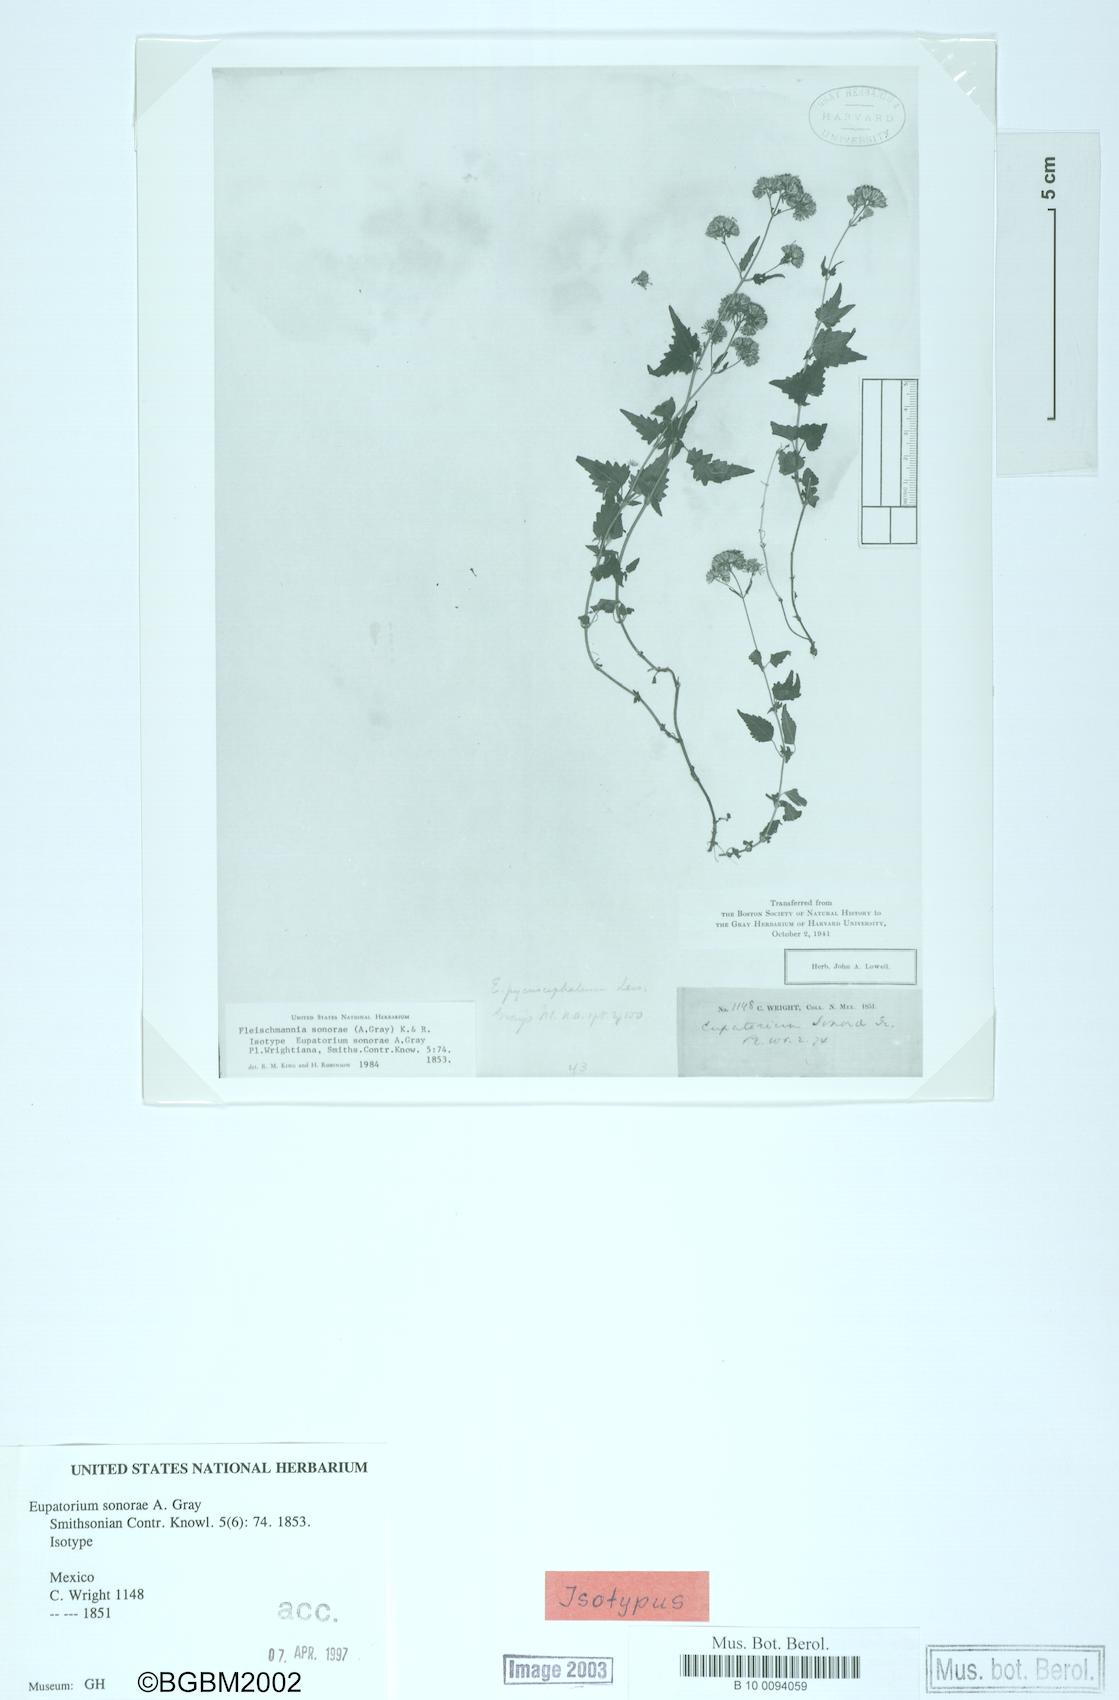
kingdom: Plantae
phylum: Tracheophyta
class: Magnoliopsida
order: Asterales
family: Asteraceae
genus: Fleischmannia
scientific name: Fleischmannia sonorae
